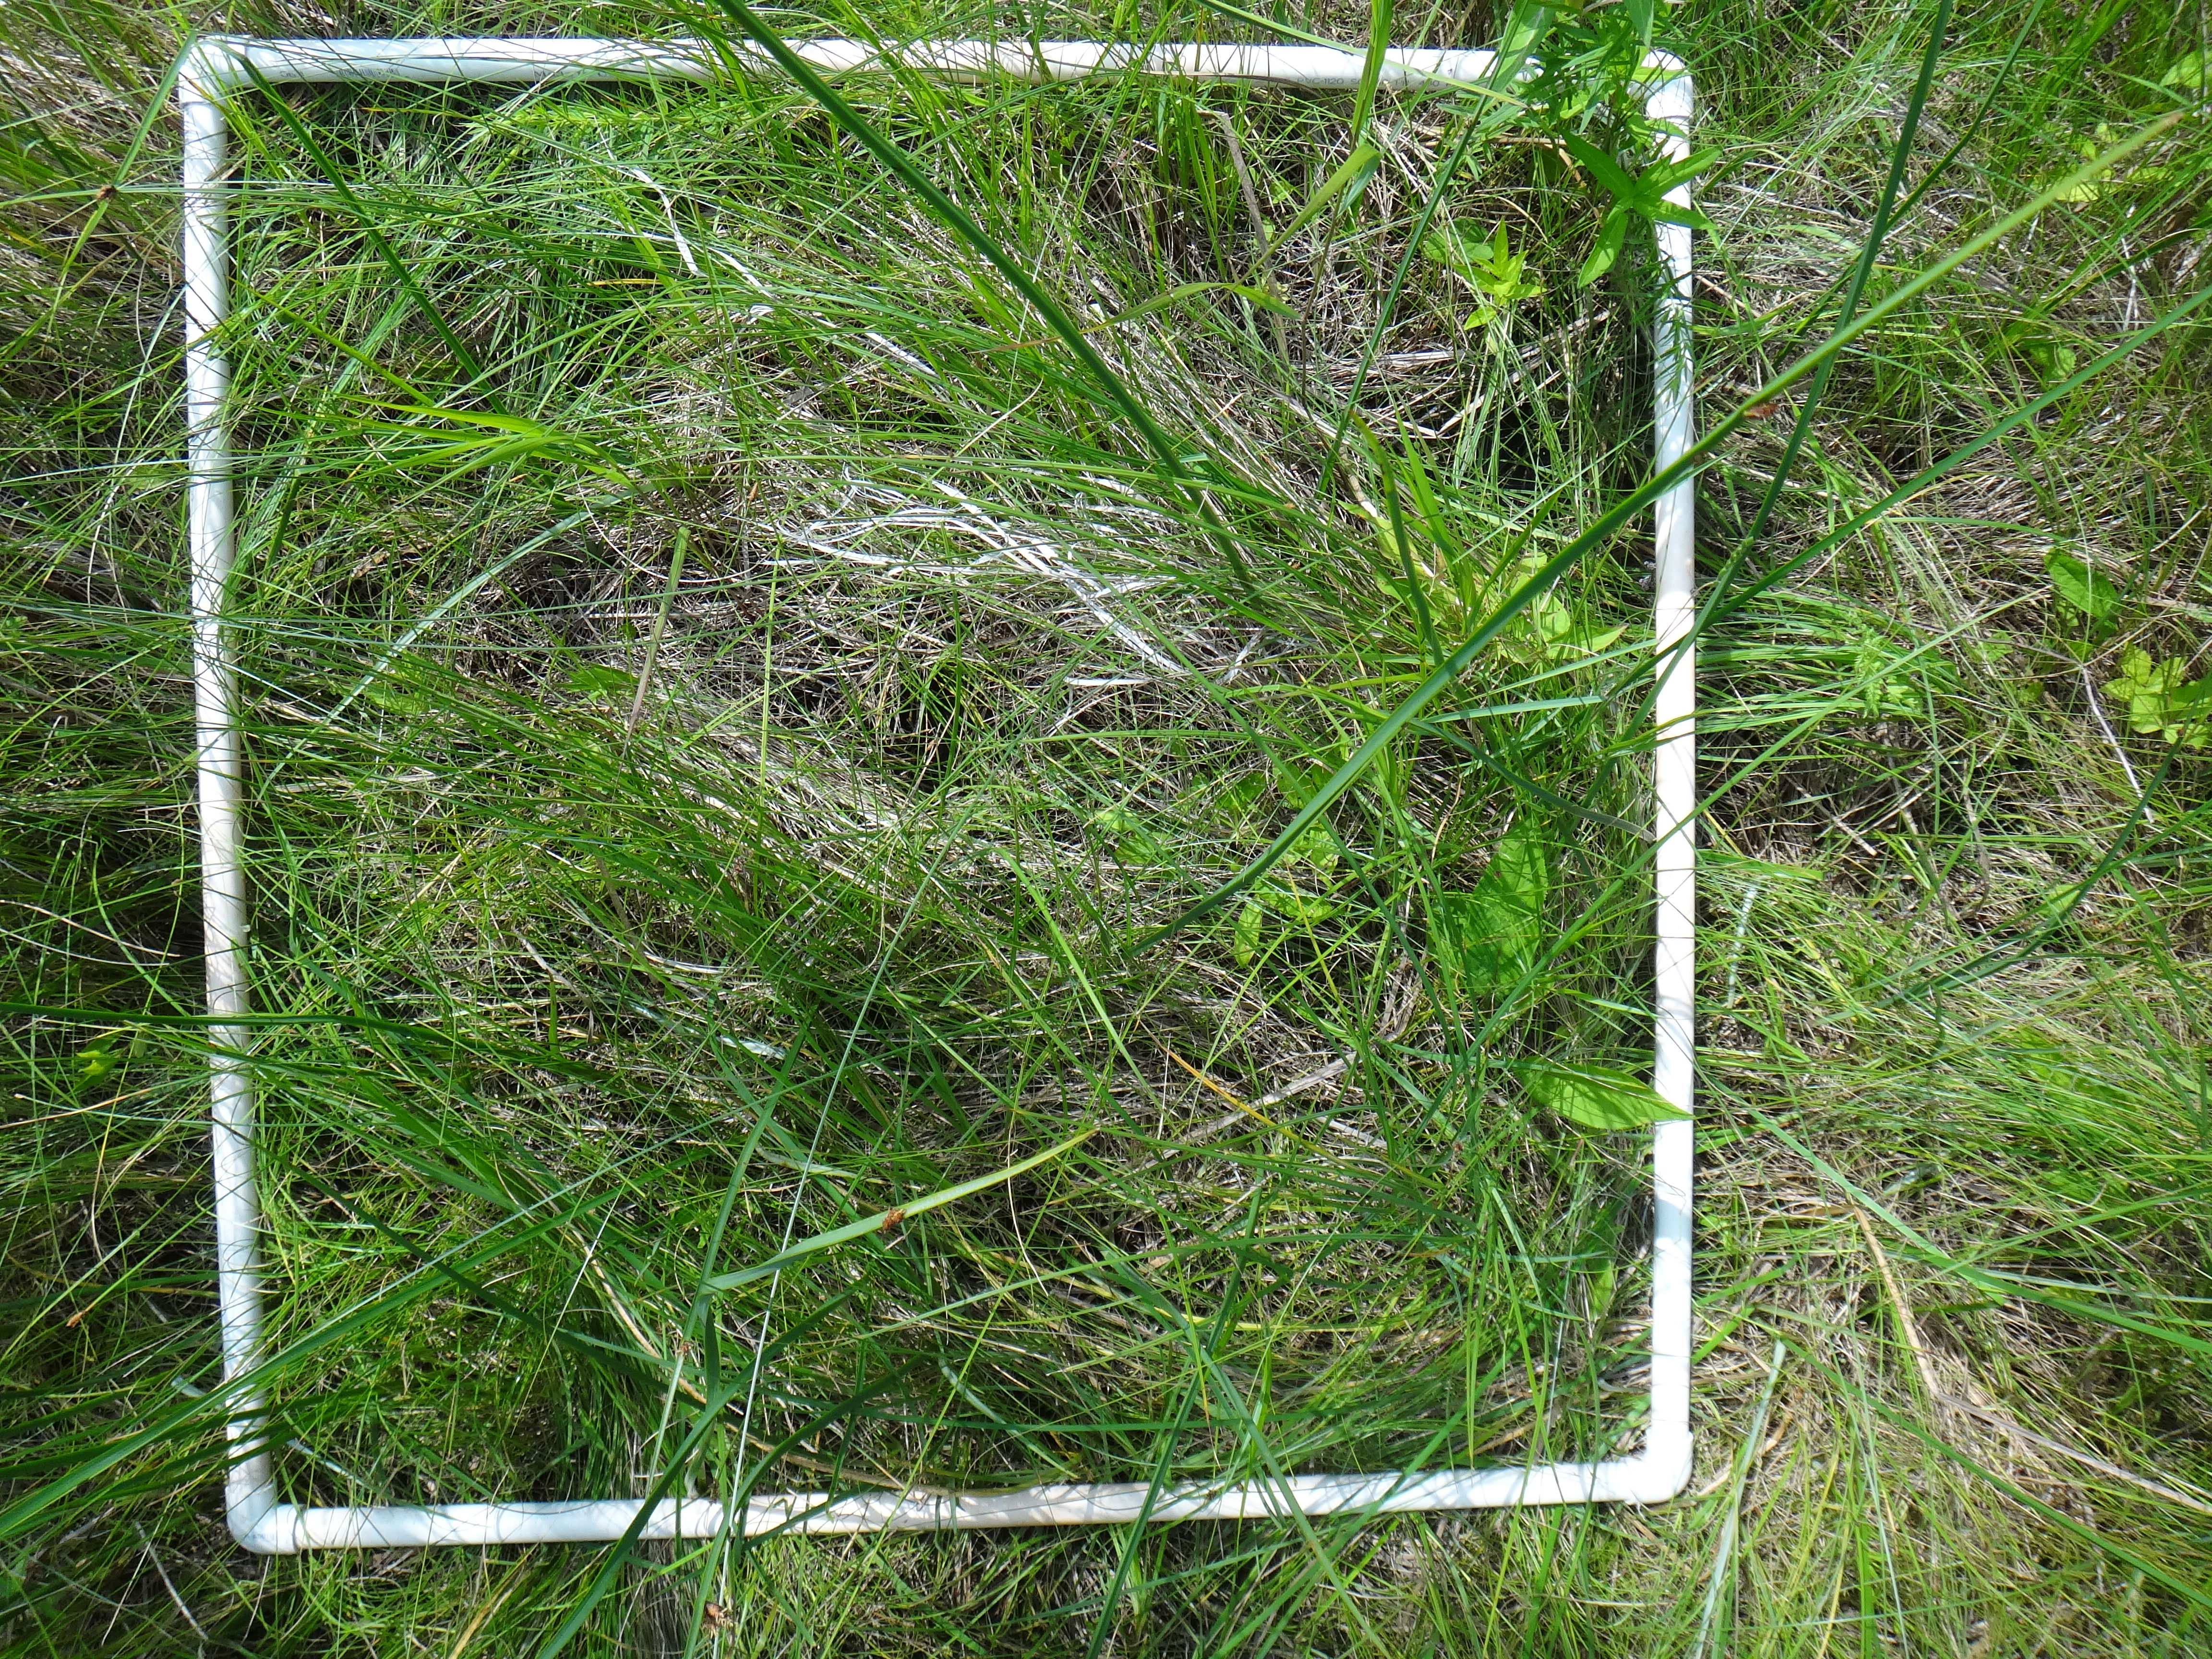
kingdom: Plantae
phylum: Tracheophyta
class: Liliopsida
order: Poales
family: Cyperaceae
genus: Schoenoplectus
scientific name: Schoenoplectus pungens
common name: Sharp club-rush
